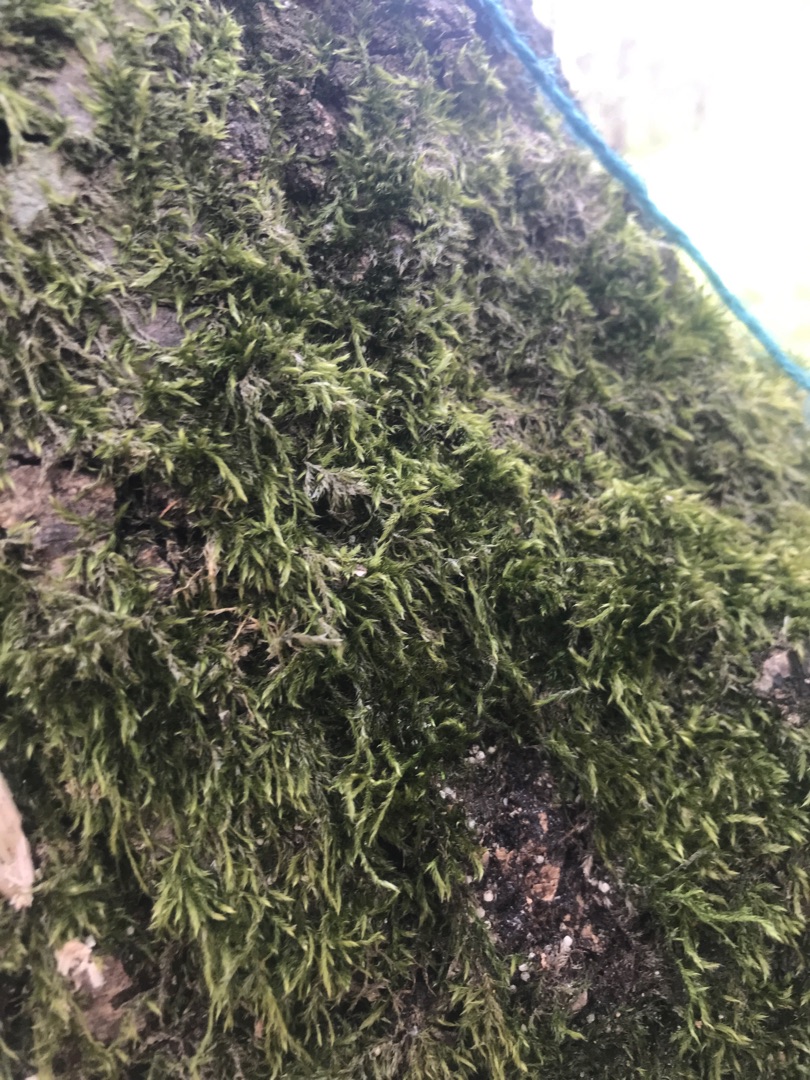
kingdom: Plantae
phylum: Bryophyta
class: Bryopsida
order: Hypnales
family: Hypnaceae
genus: Hypnum
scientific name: Hypnum
